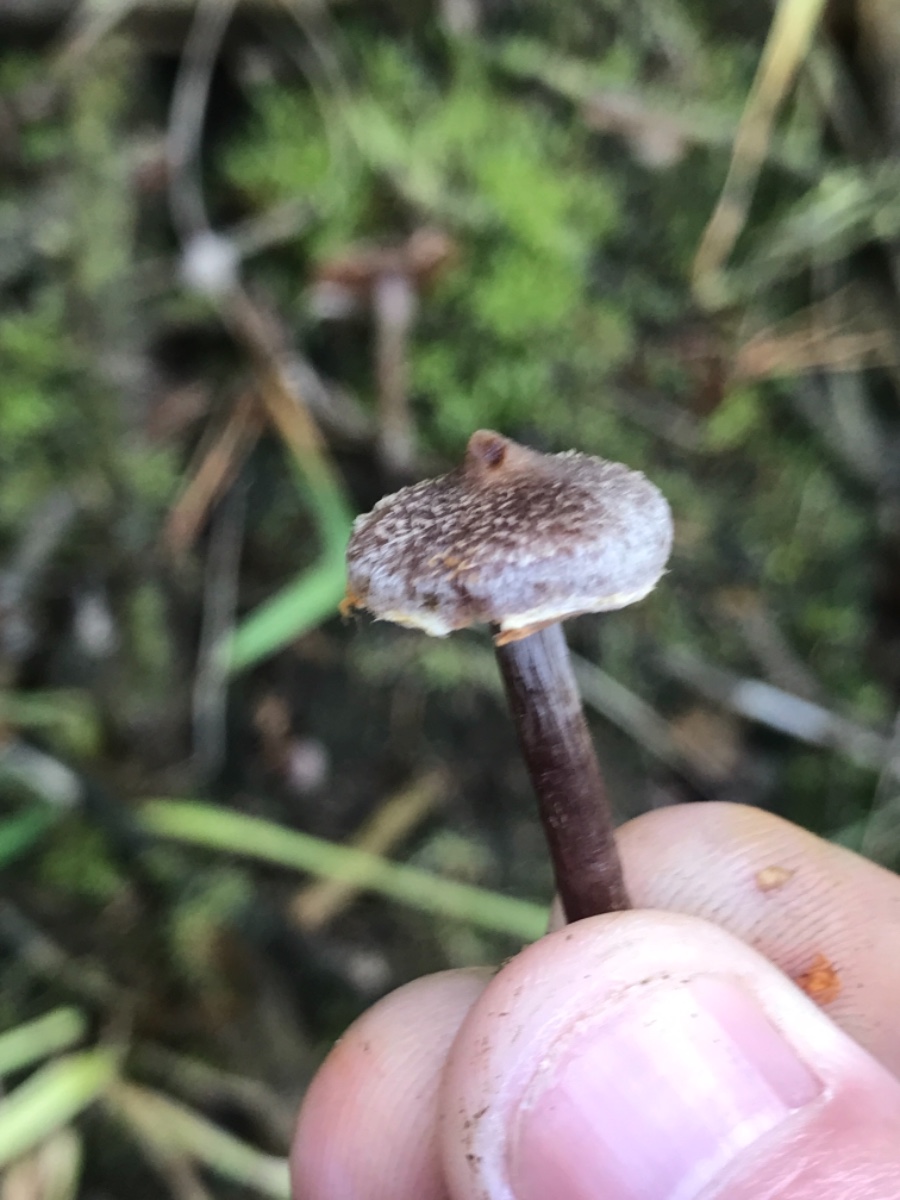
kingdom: Fungi
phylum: Basidiomycota
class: Agaricomycetes
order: Agaricales
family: Cortinariaceae
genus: Cortinarius
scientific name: Cortinarius
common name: pelargonie-slørhat
